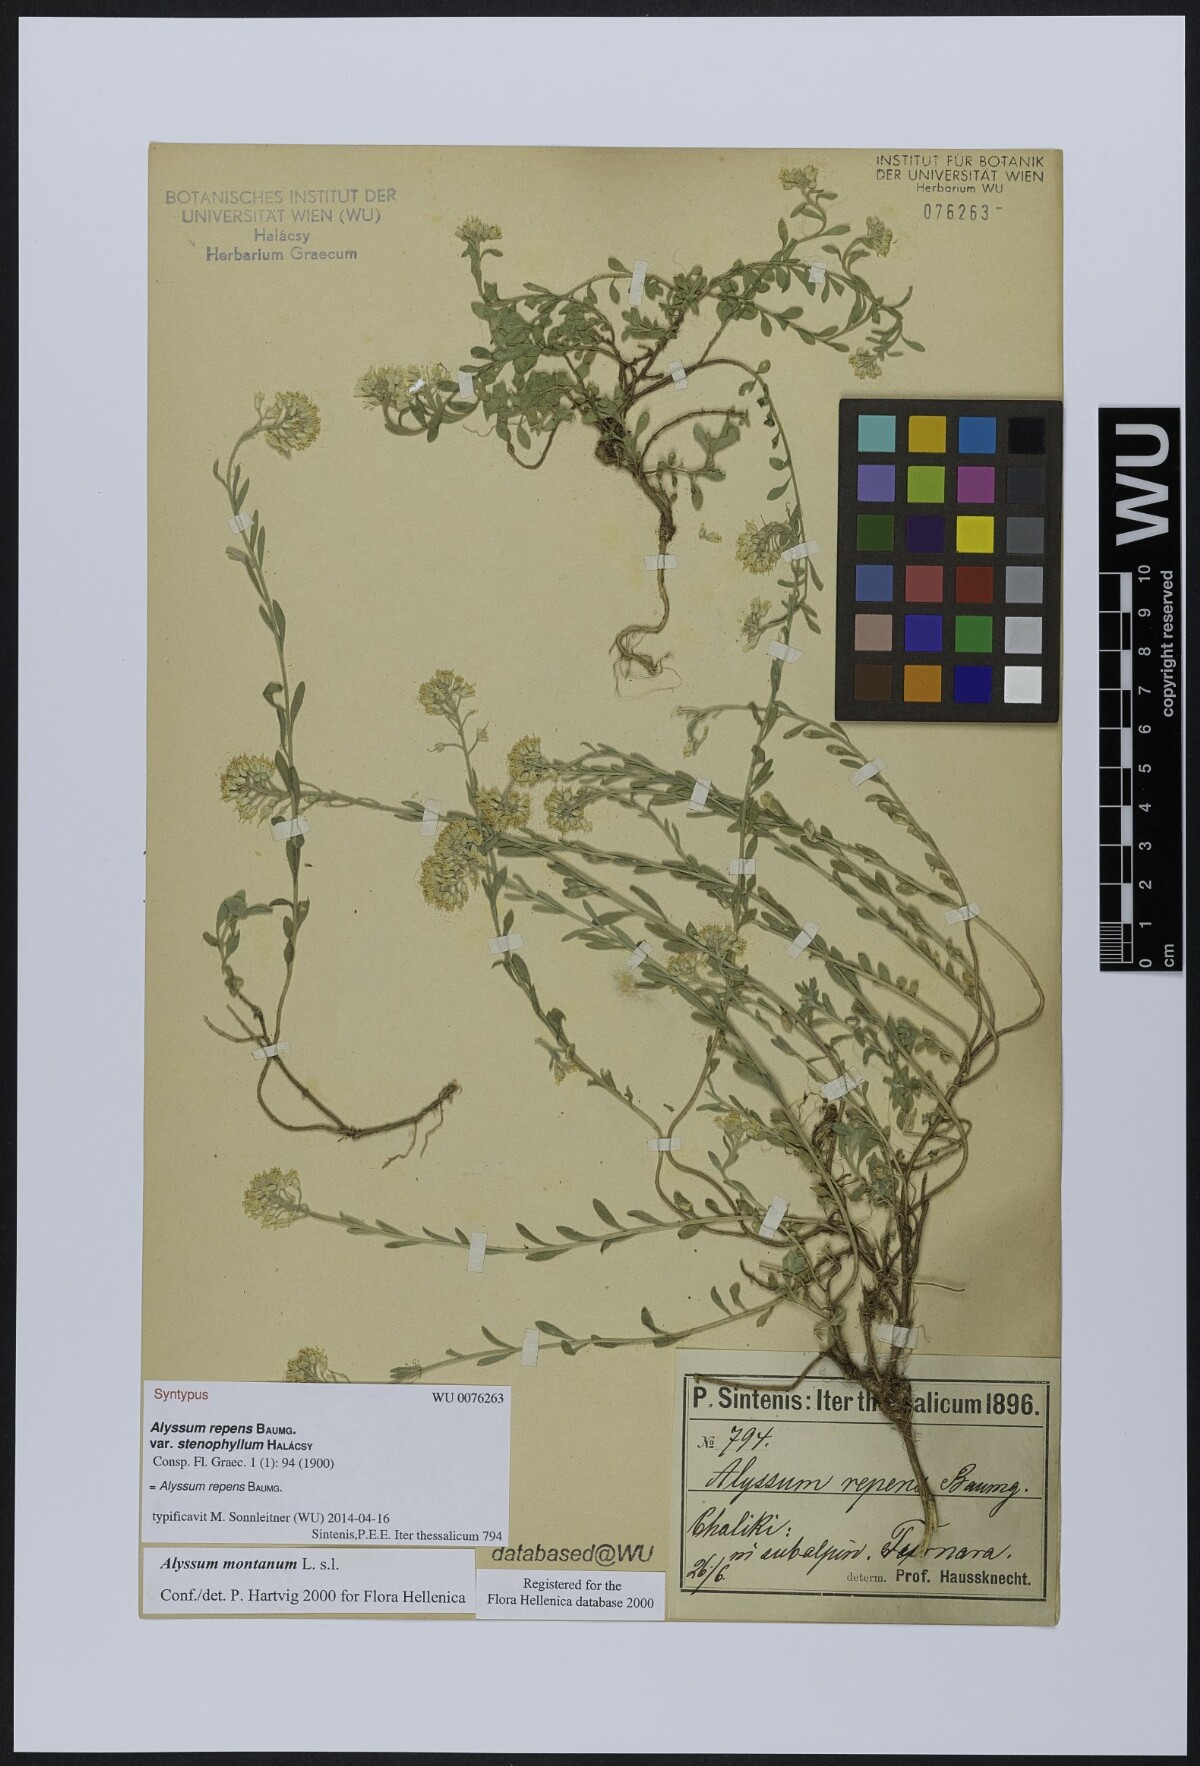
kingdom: Plantae
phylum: Tracheophyta
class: Magnoliopsida
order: Brassicales
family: Brassicaceae
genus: Alyssum
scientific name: Alyssum trichostachyum
